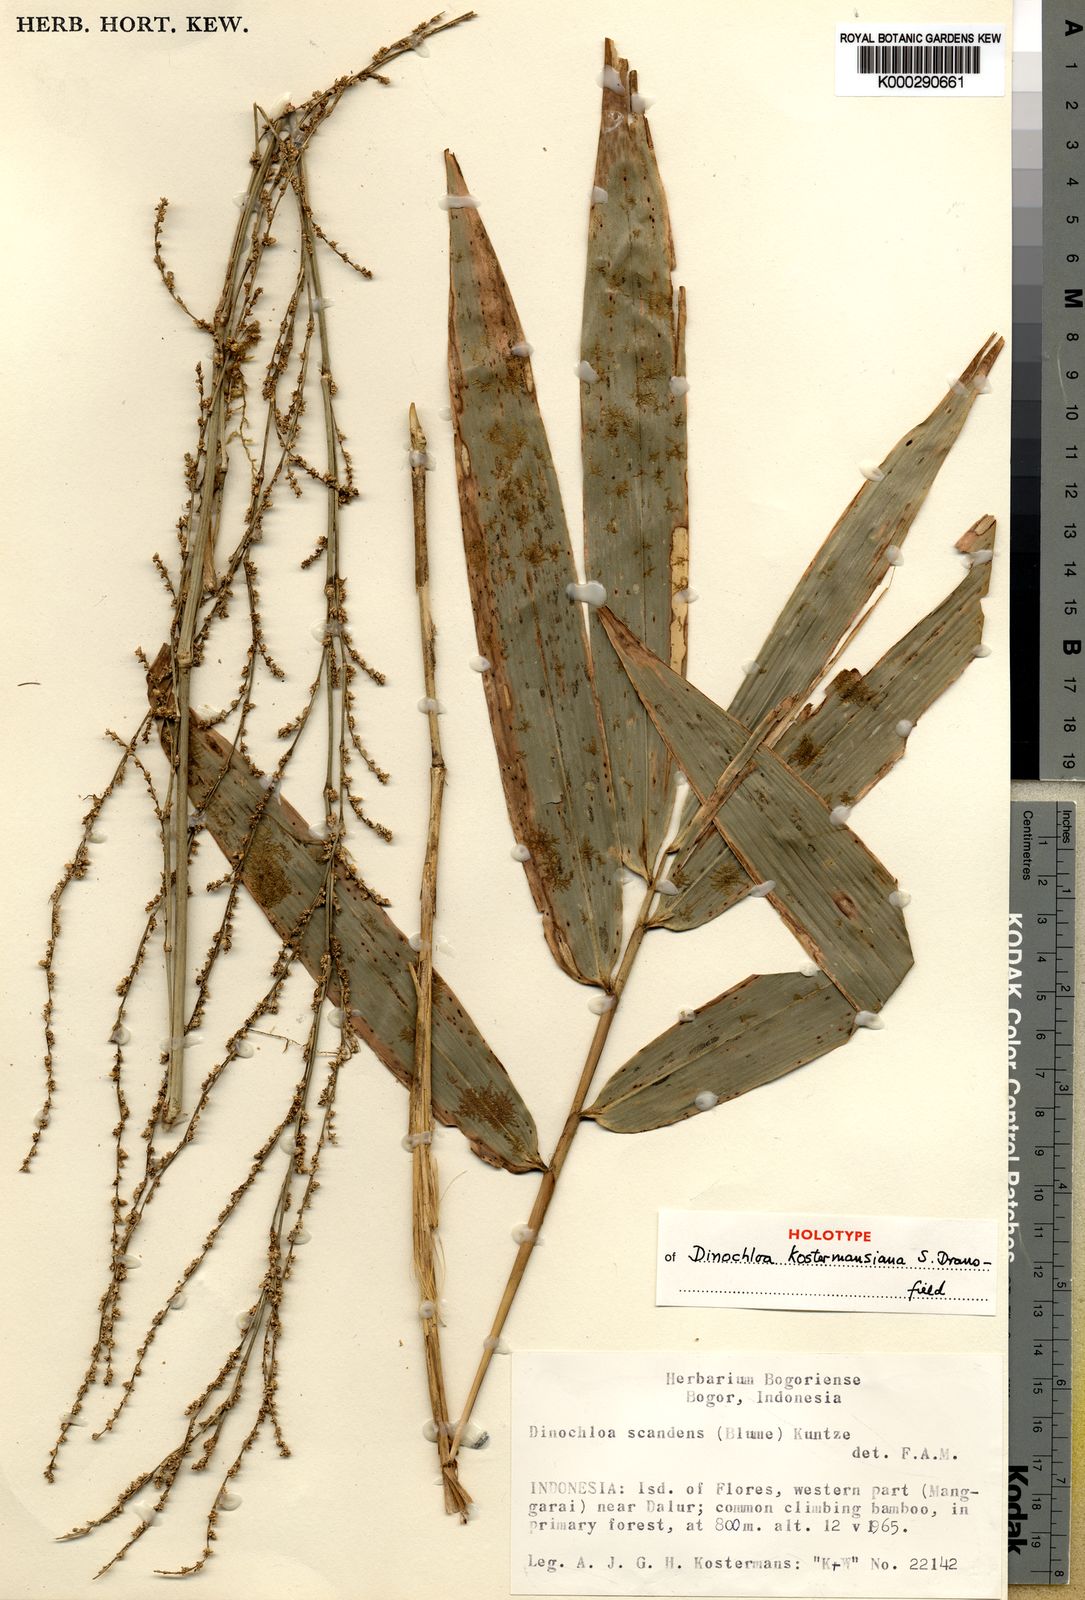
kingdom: Plantae
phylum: Tracheophyta
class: Liliopsida
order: Poales
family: Poaceae
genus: Dinochloa
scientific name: Dinochloa kostermansiana
